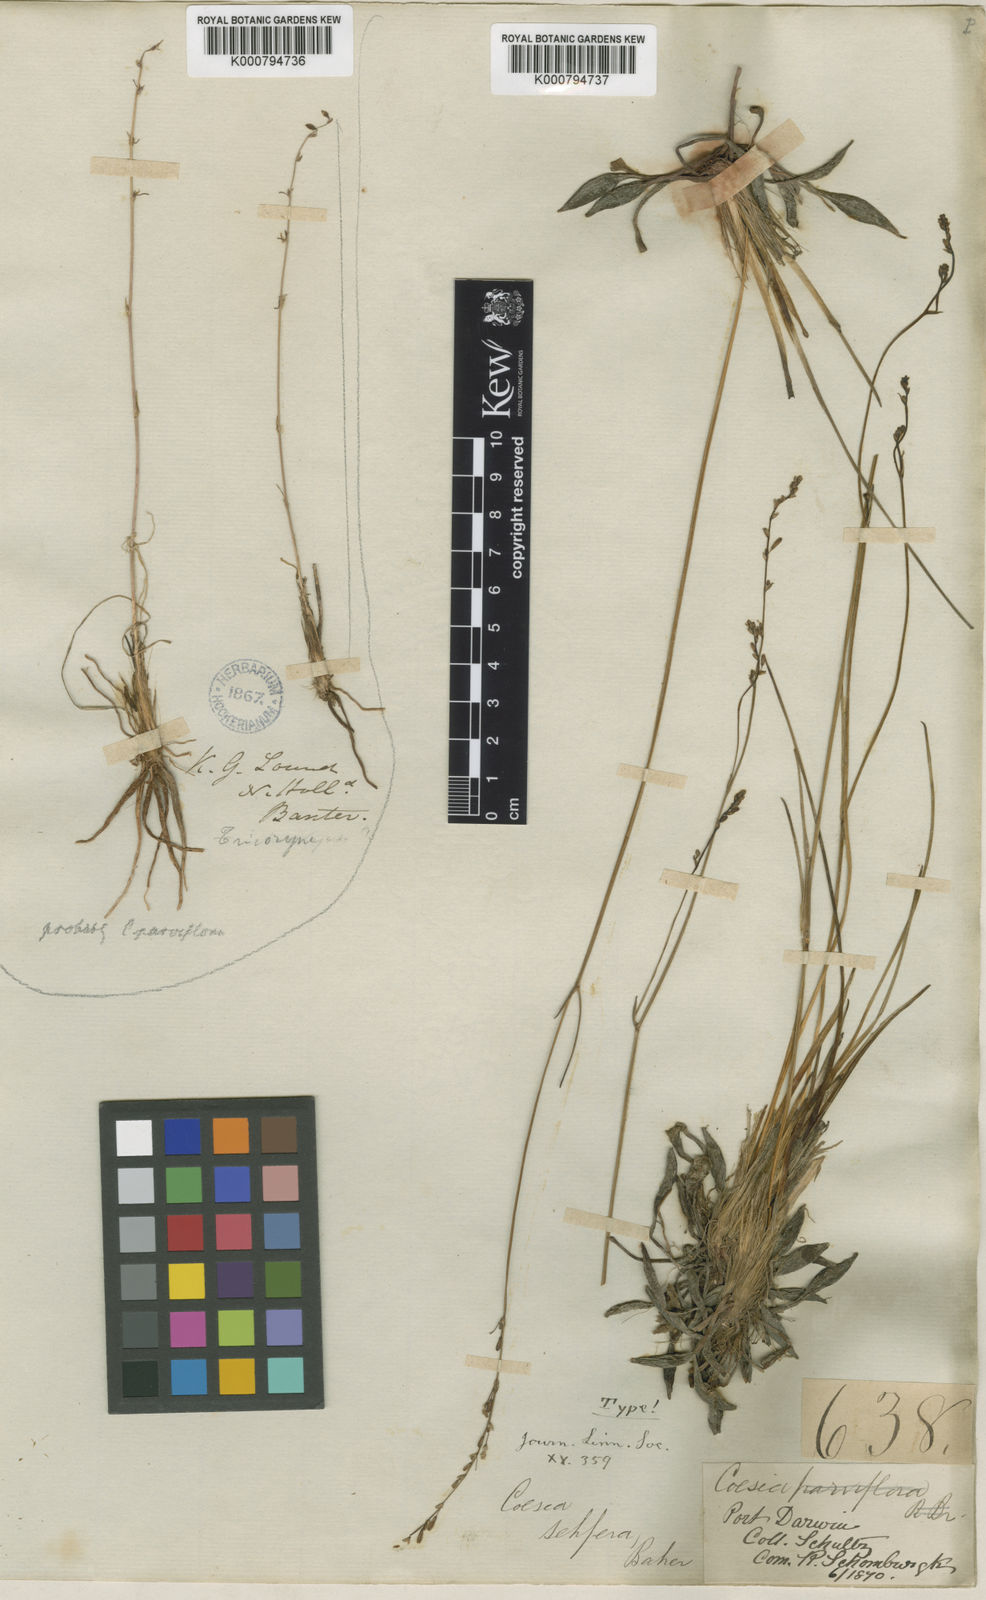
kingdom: Plantae
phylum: Tracheophyta
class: Liliopsida
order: Asparagales
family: Asphodelaceae
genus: Caesia
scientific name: Caesia setifera
